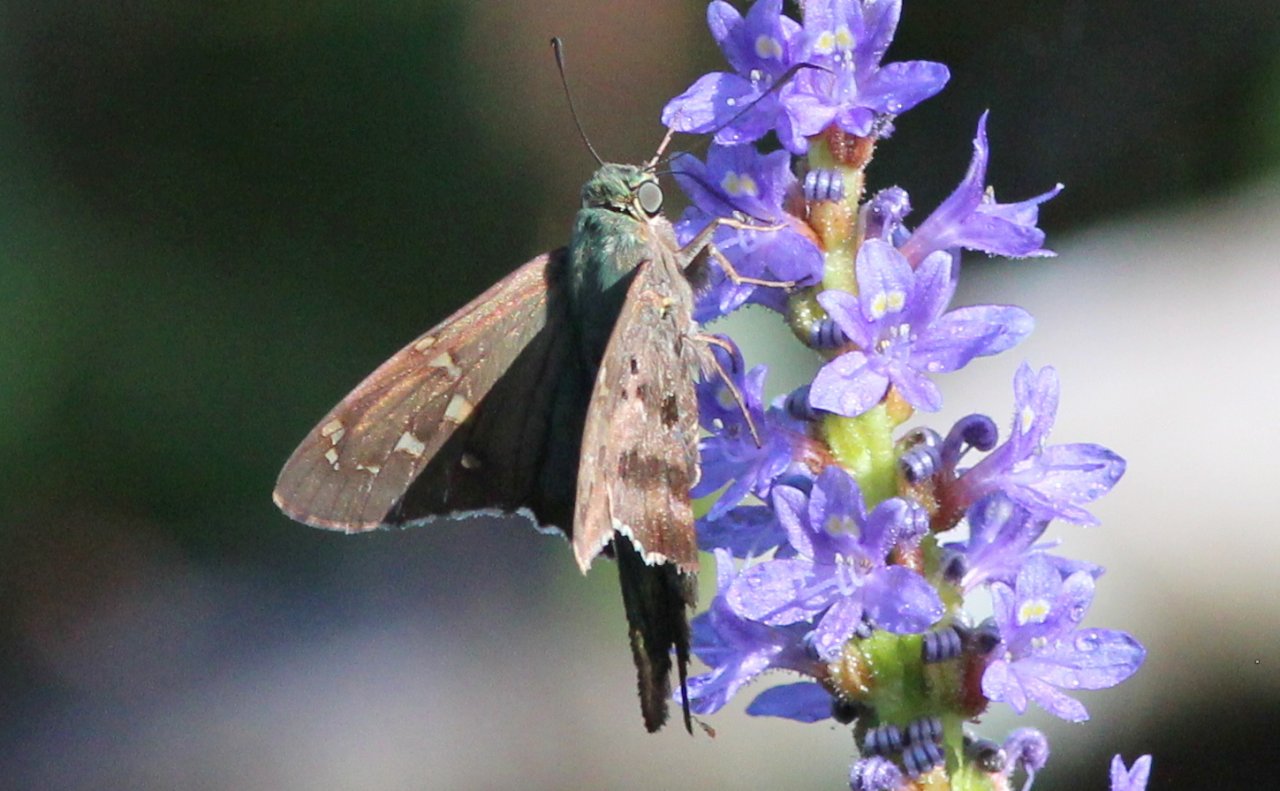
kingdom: Animalia
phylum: Arthropoda
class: Insecta
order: Lepidoptera
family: Hesperiidae
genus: Urbanus
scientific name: Urbanus proteus
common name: Long-tailed Skipper
